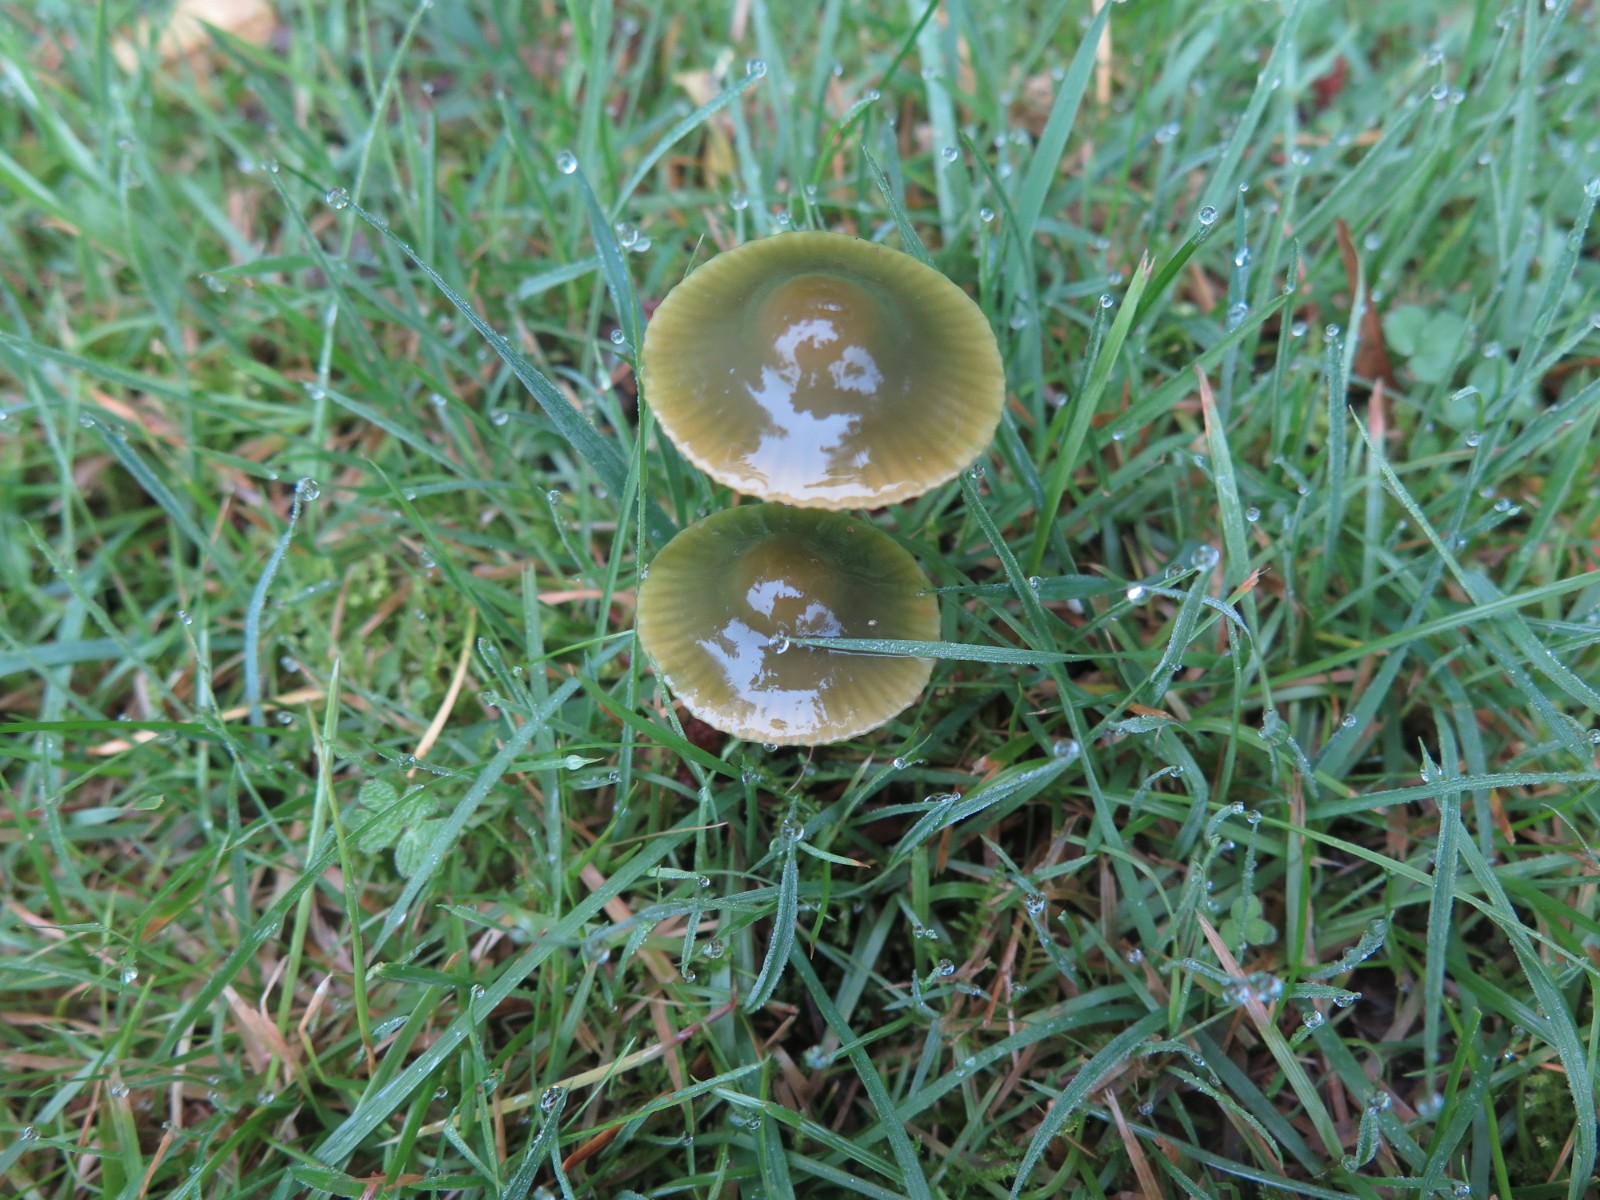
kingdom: Fungi
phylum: Basidiomycota
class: Agaricomycetes
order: Agaricales
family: Hygrophoraceae
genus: Gliophorus
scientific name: Gliophorus psittacinus
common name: papegøje-vokshat
